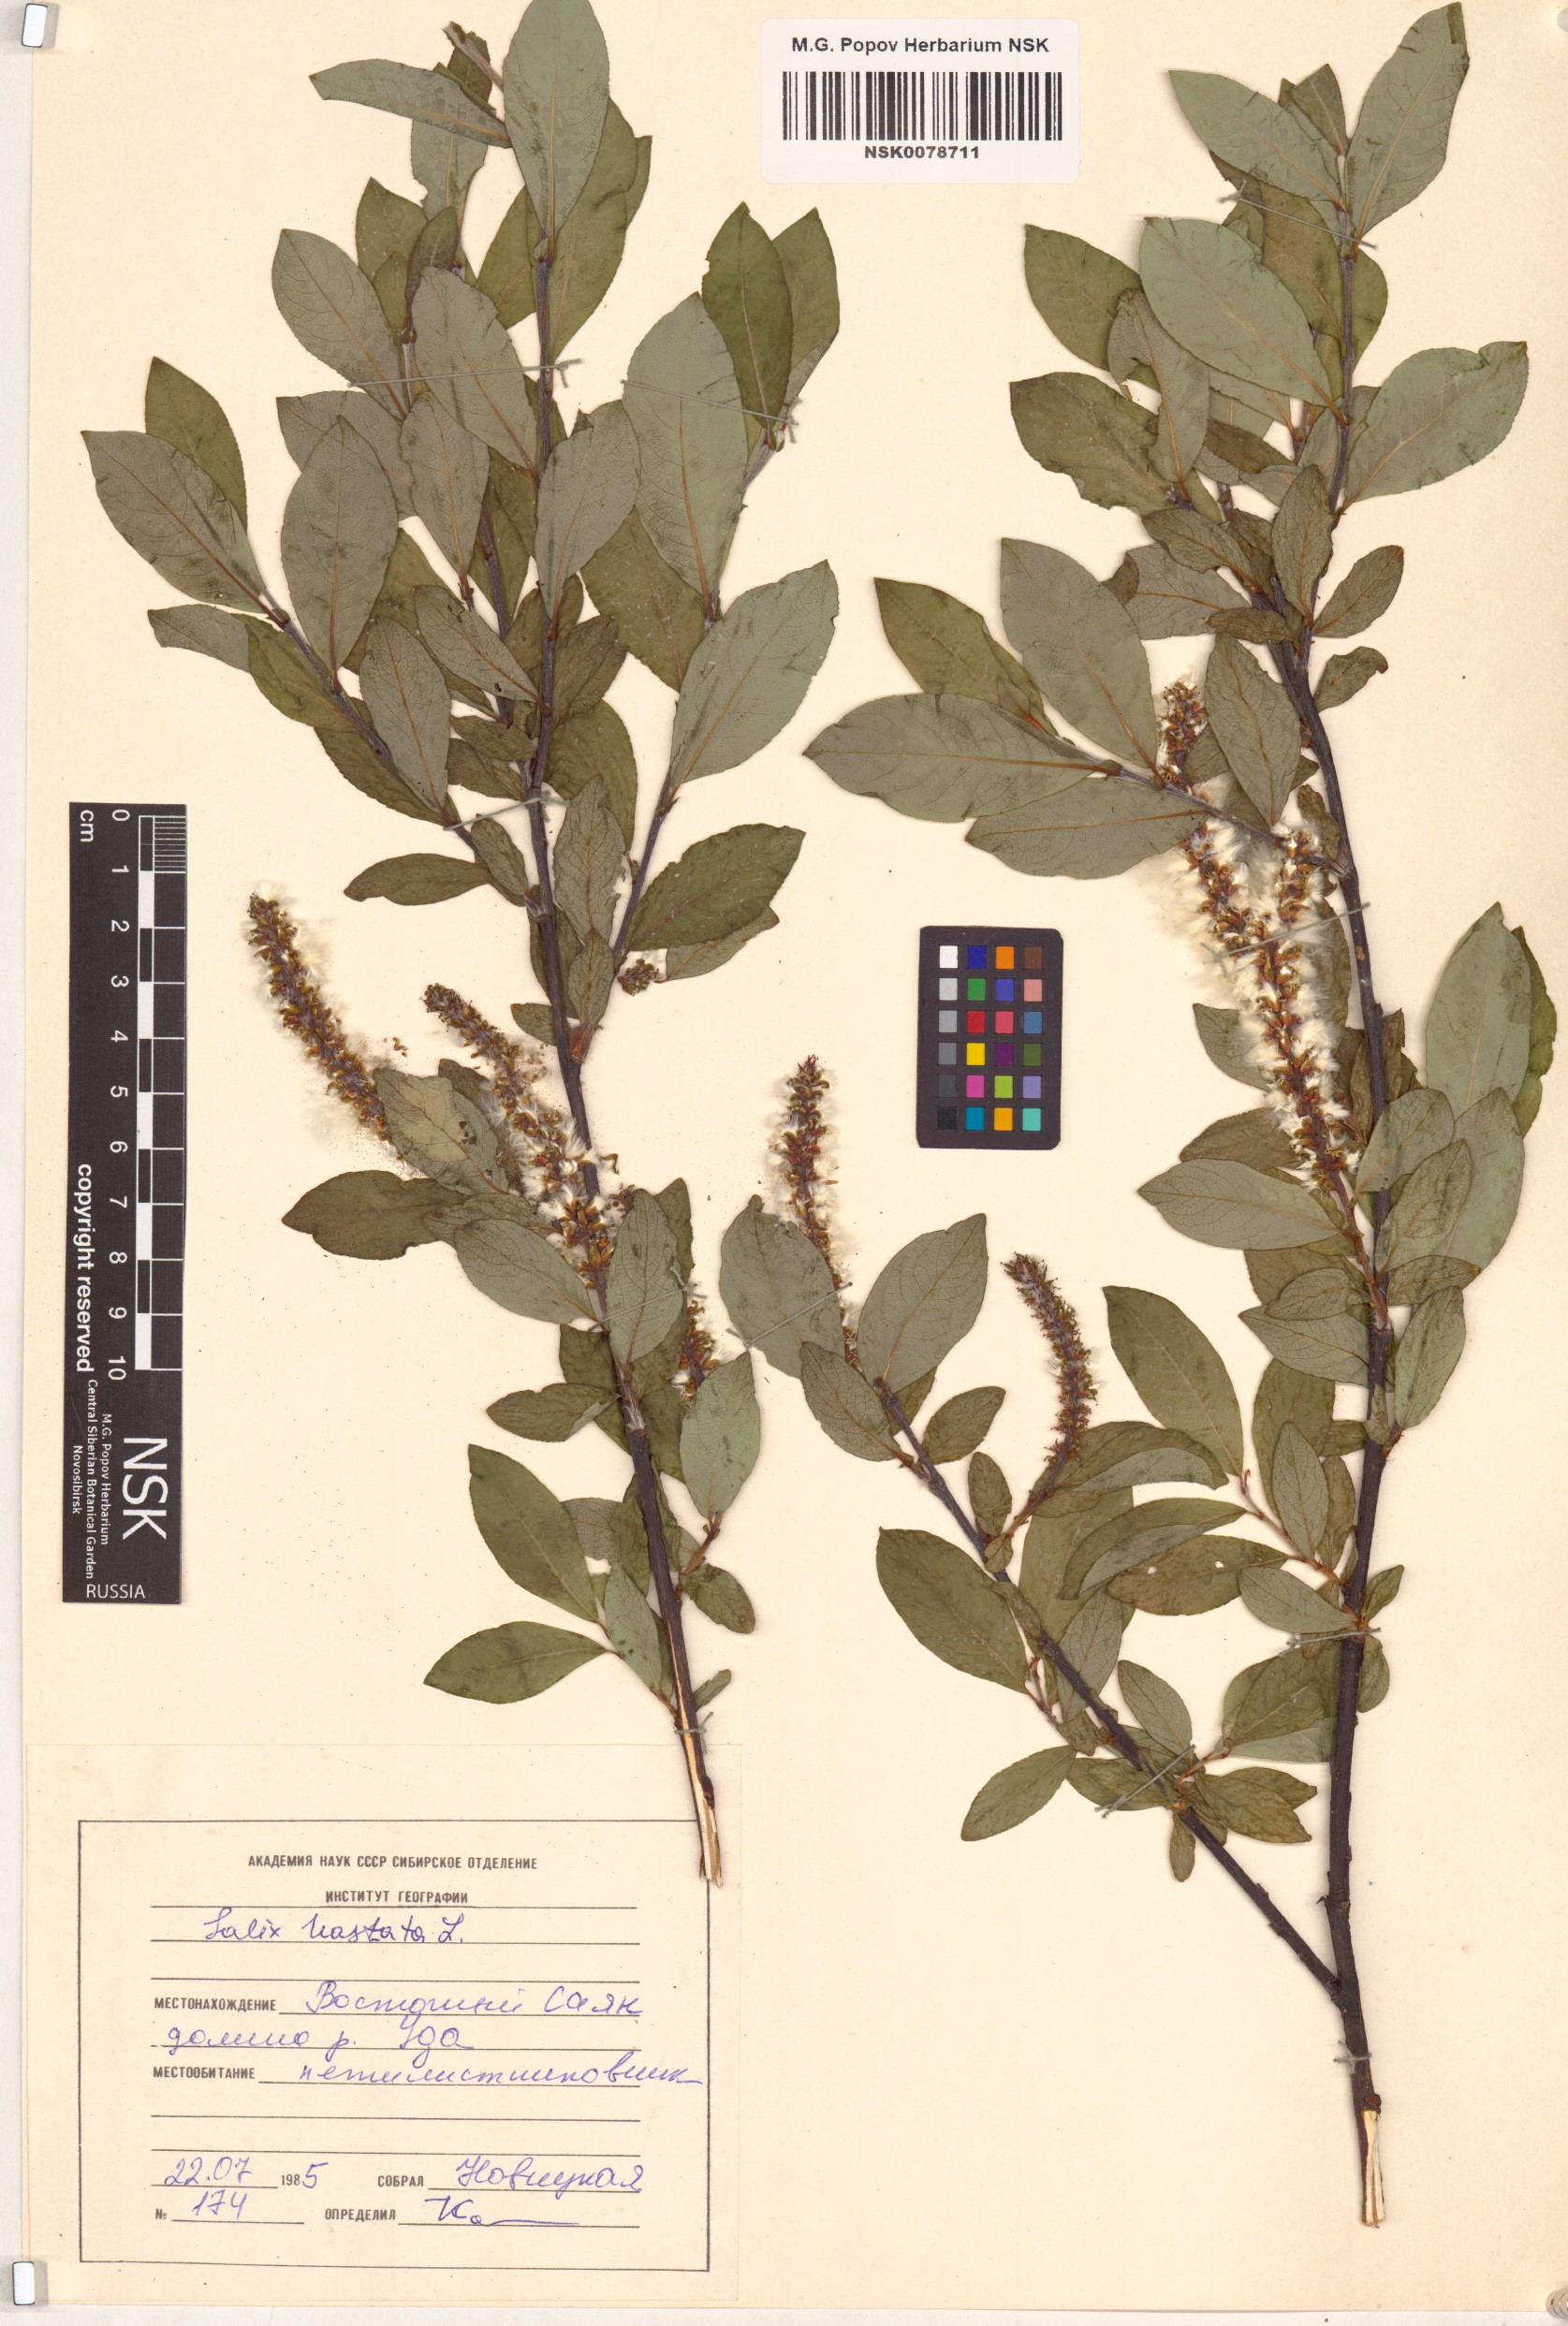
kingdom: Plantae
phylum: Tracheophyta
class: Magnoliopsida
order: Malpighiales
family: Salicaceae
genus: Salix
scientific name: Salix hastata
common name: Halberd willow
